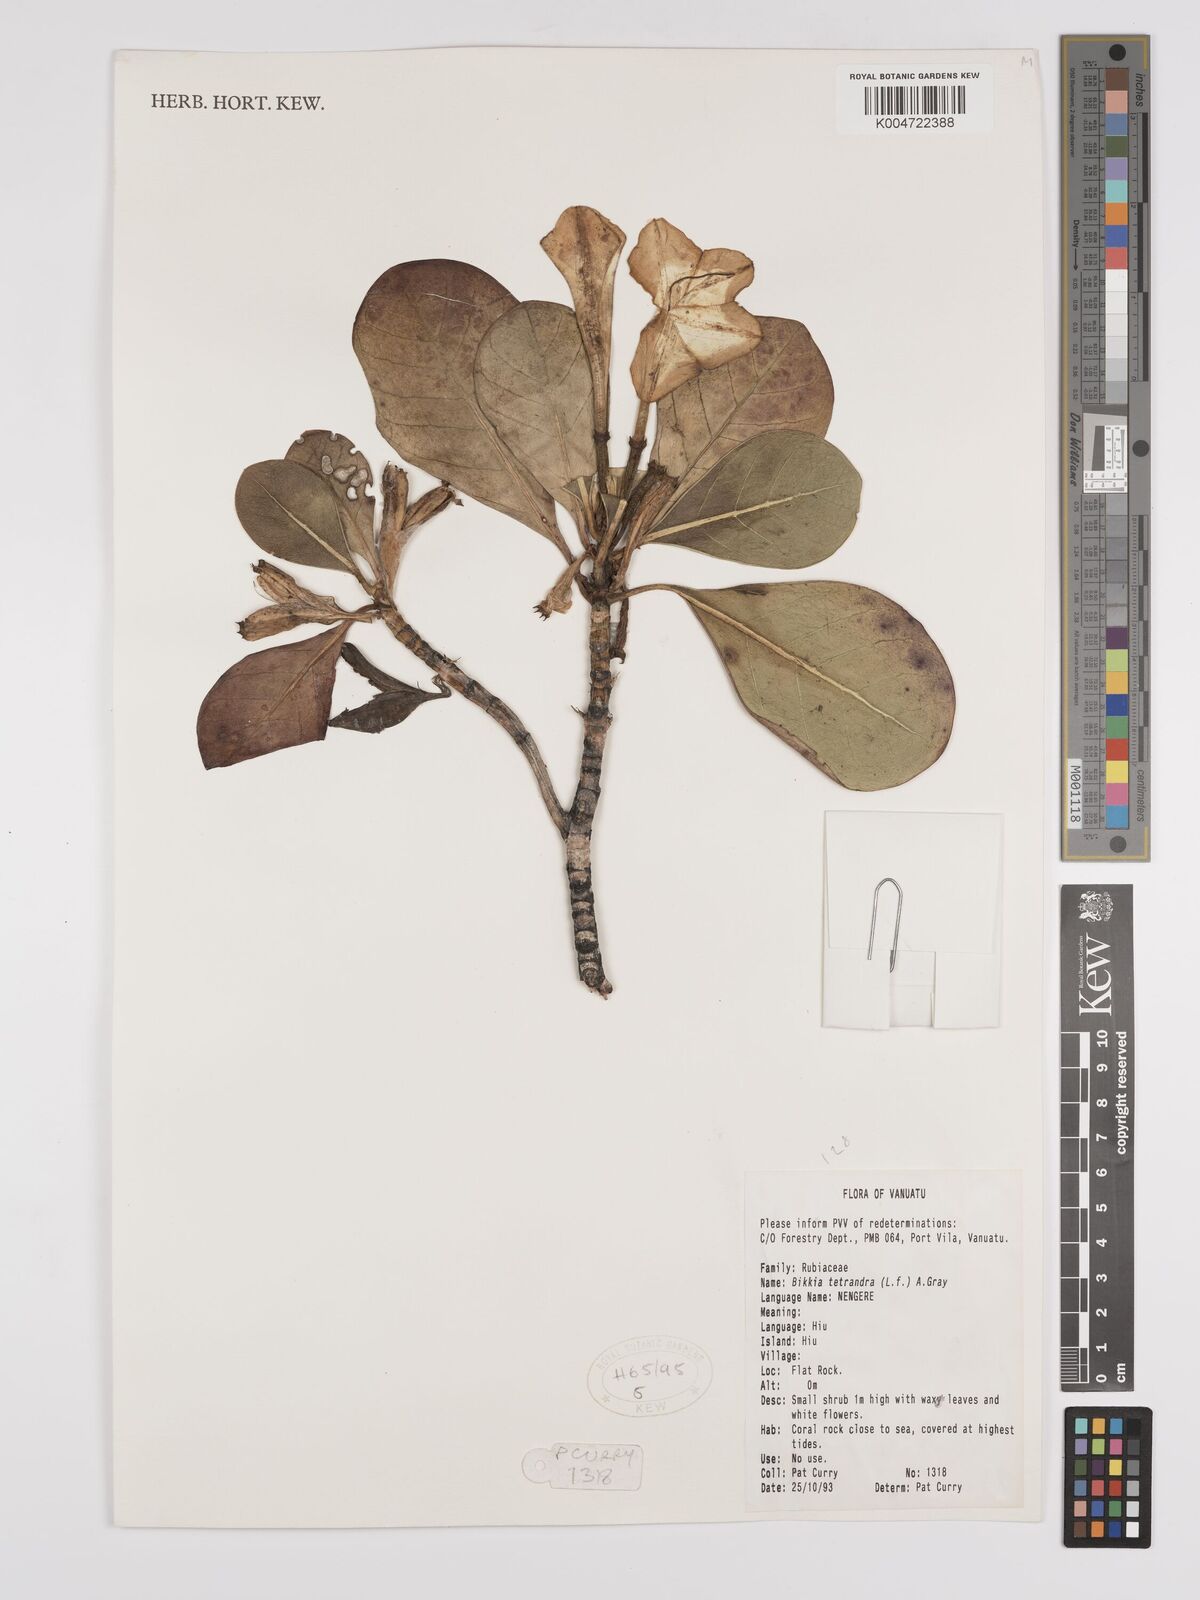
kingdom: Plantae
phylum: Tracheophyta
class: Magnoliopsida
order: Gentianales
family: Rubiaceae
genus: Bikkia
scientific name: Bikkia
